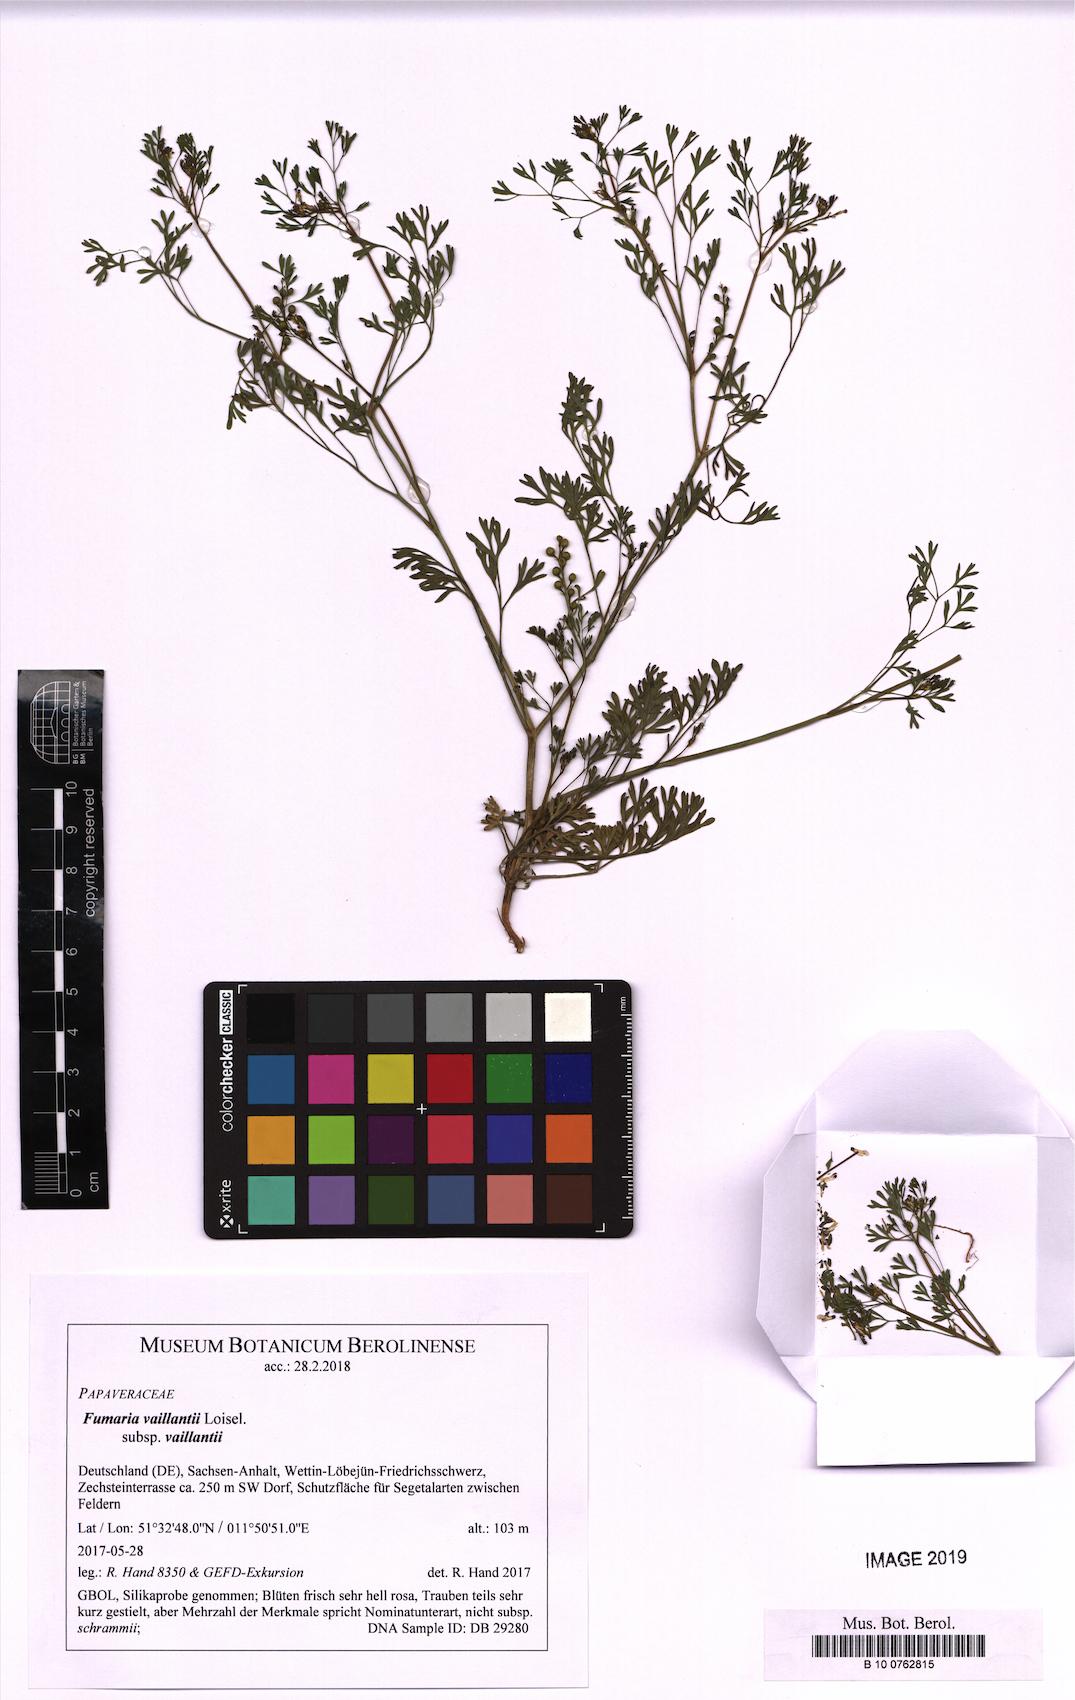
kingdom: Plantae
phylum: Tracheophyta
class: Magnoliopsida
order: Ranunculales
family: Papaveraceae
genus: Fumaria
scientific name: Fumaria vaillantii
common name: Few-flowered fumitory
